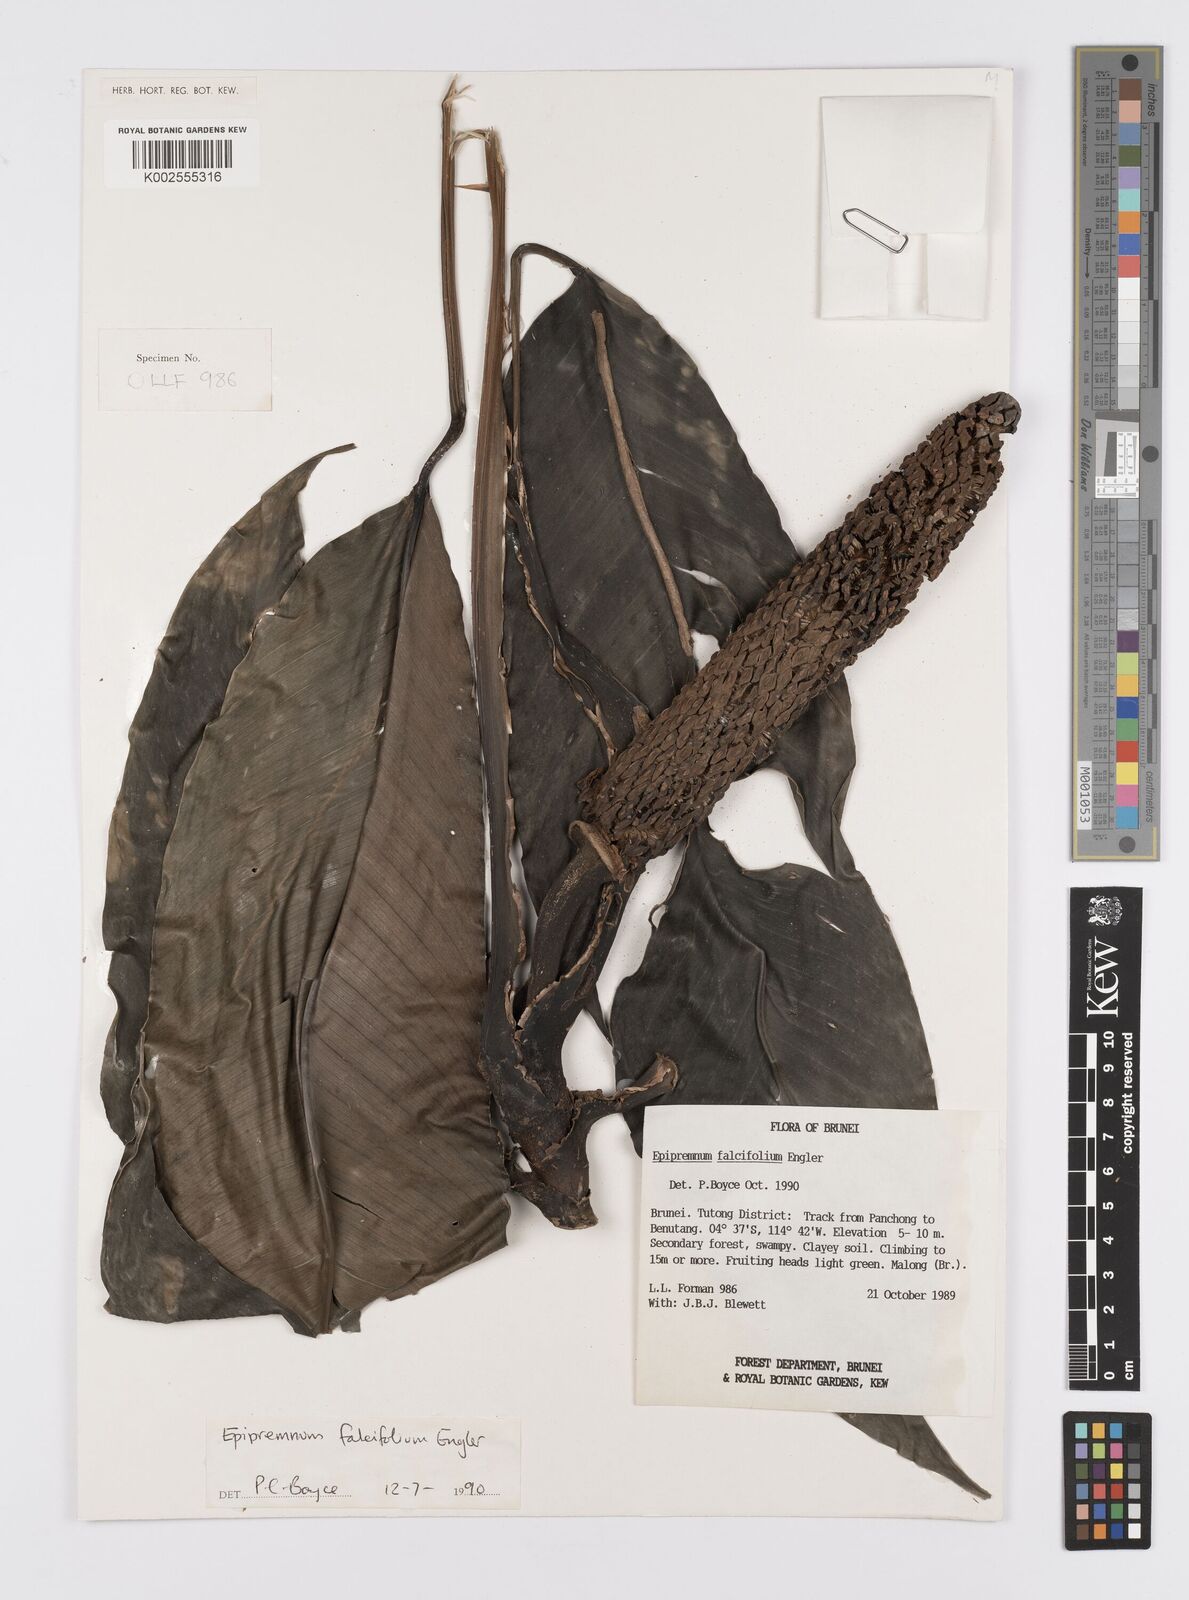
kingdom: Plantae
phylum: Tracheophyta
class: Liliopsida
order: Alismatales
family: Araceae
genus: Epipremnum
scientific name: Epipremnum falcifolium
